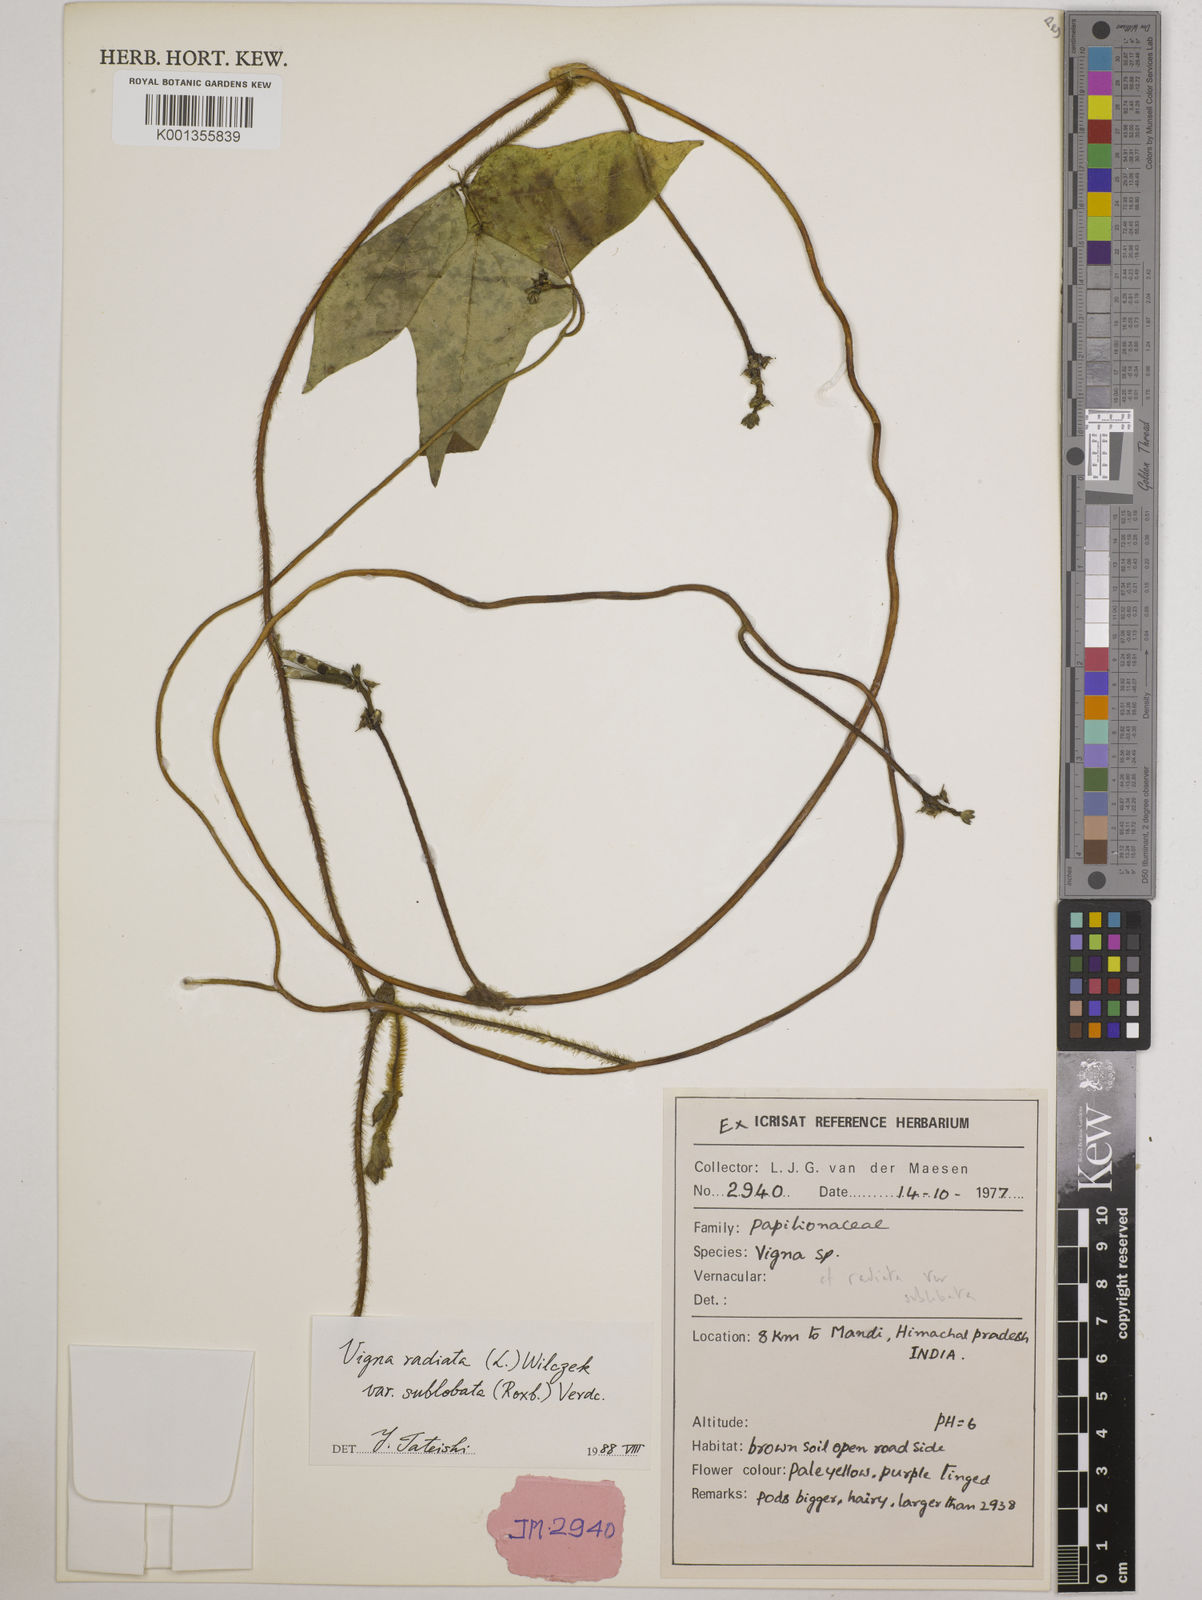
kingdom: Plantae
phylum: Tracheophyta
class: Magnoliopsida
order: Fabales
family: Fabaceae
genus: Vigna
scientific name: Vigna radiata
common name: Mung-bean
